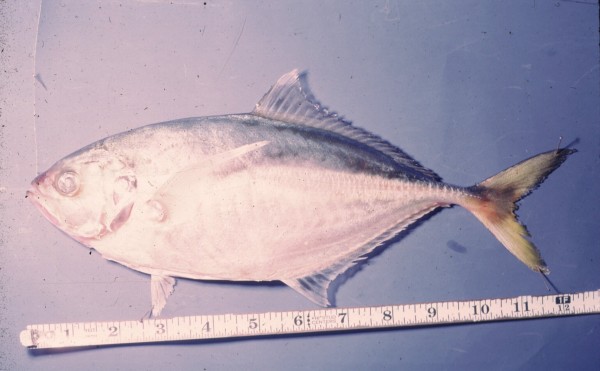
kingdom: Animalia
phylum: Chordata
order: Perciformes
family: Carangidae
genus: Caranx
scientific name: Caranx sexfasciatus
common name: Bigeye trevally
